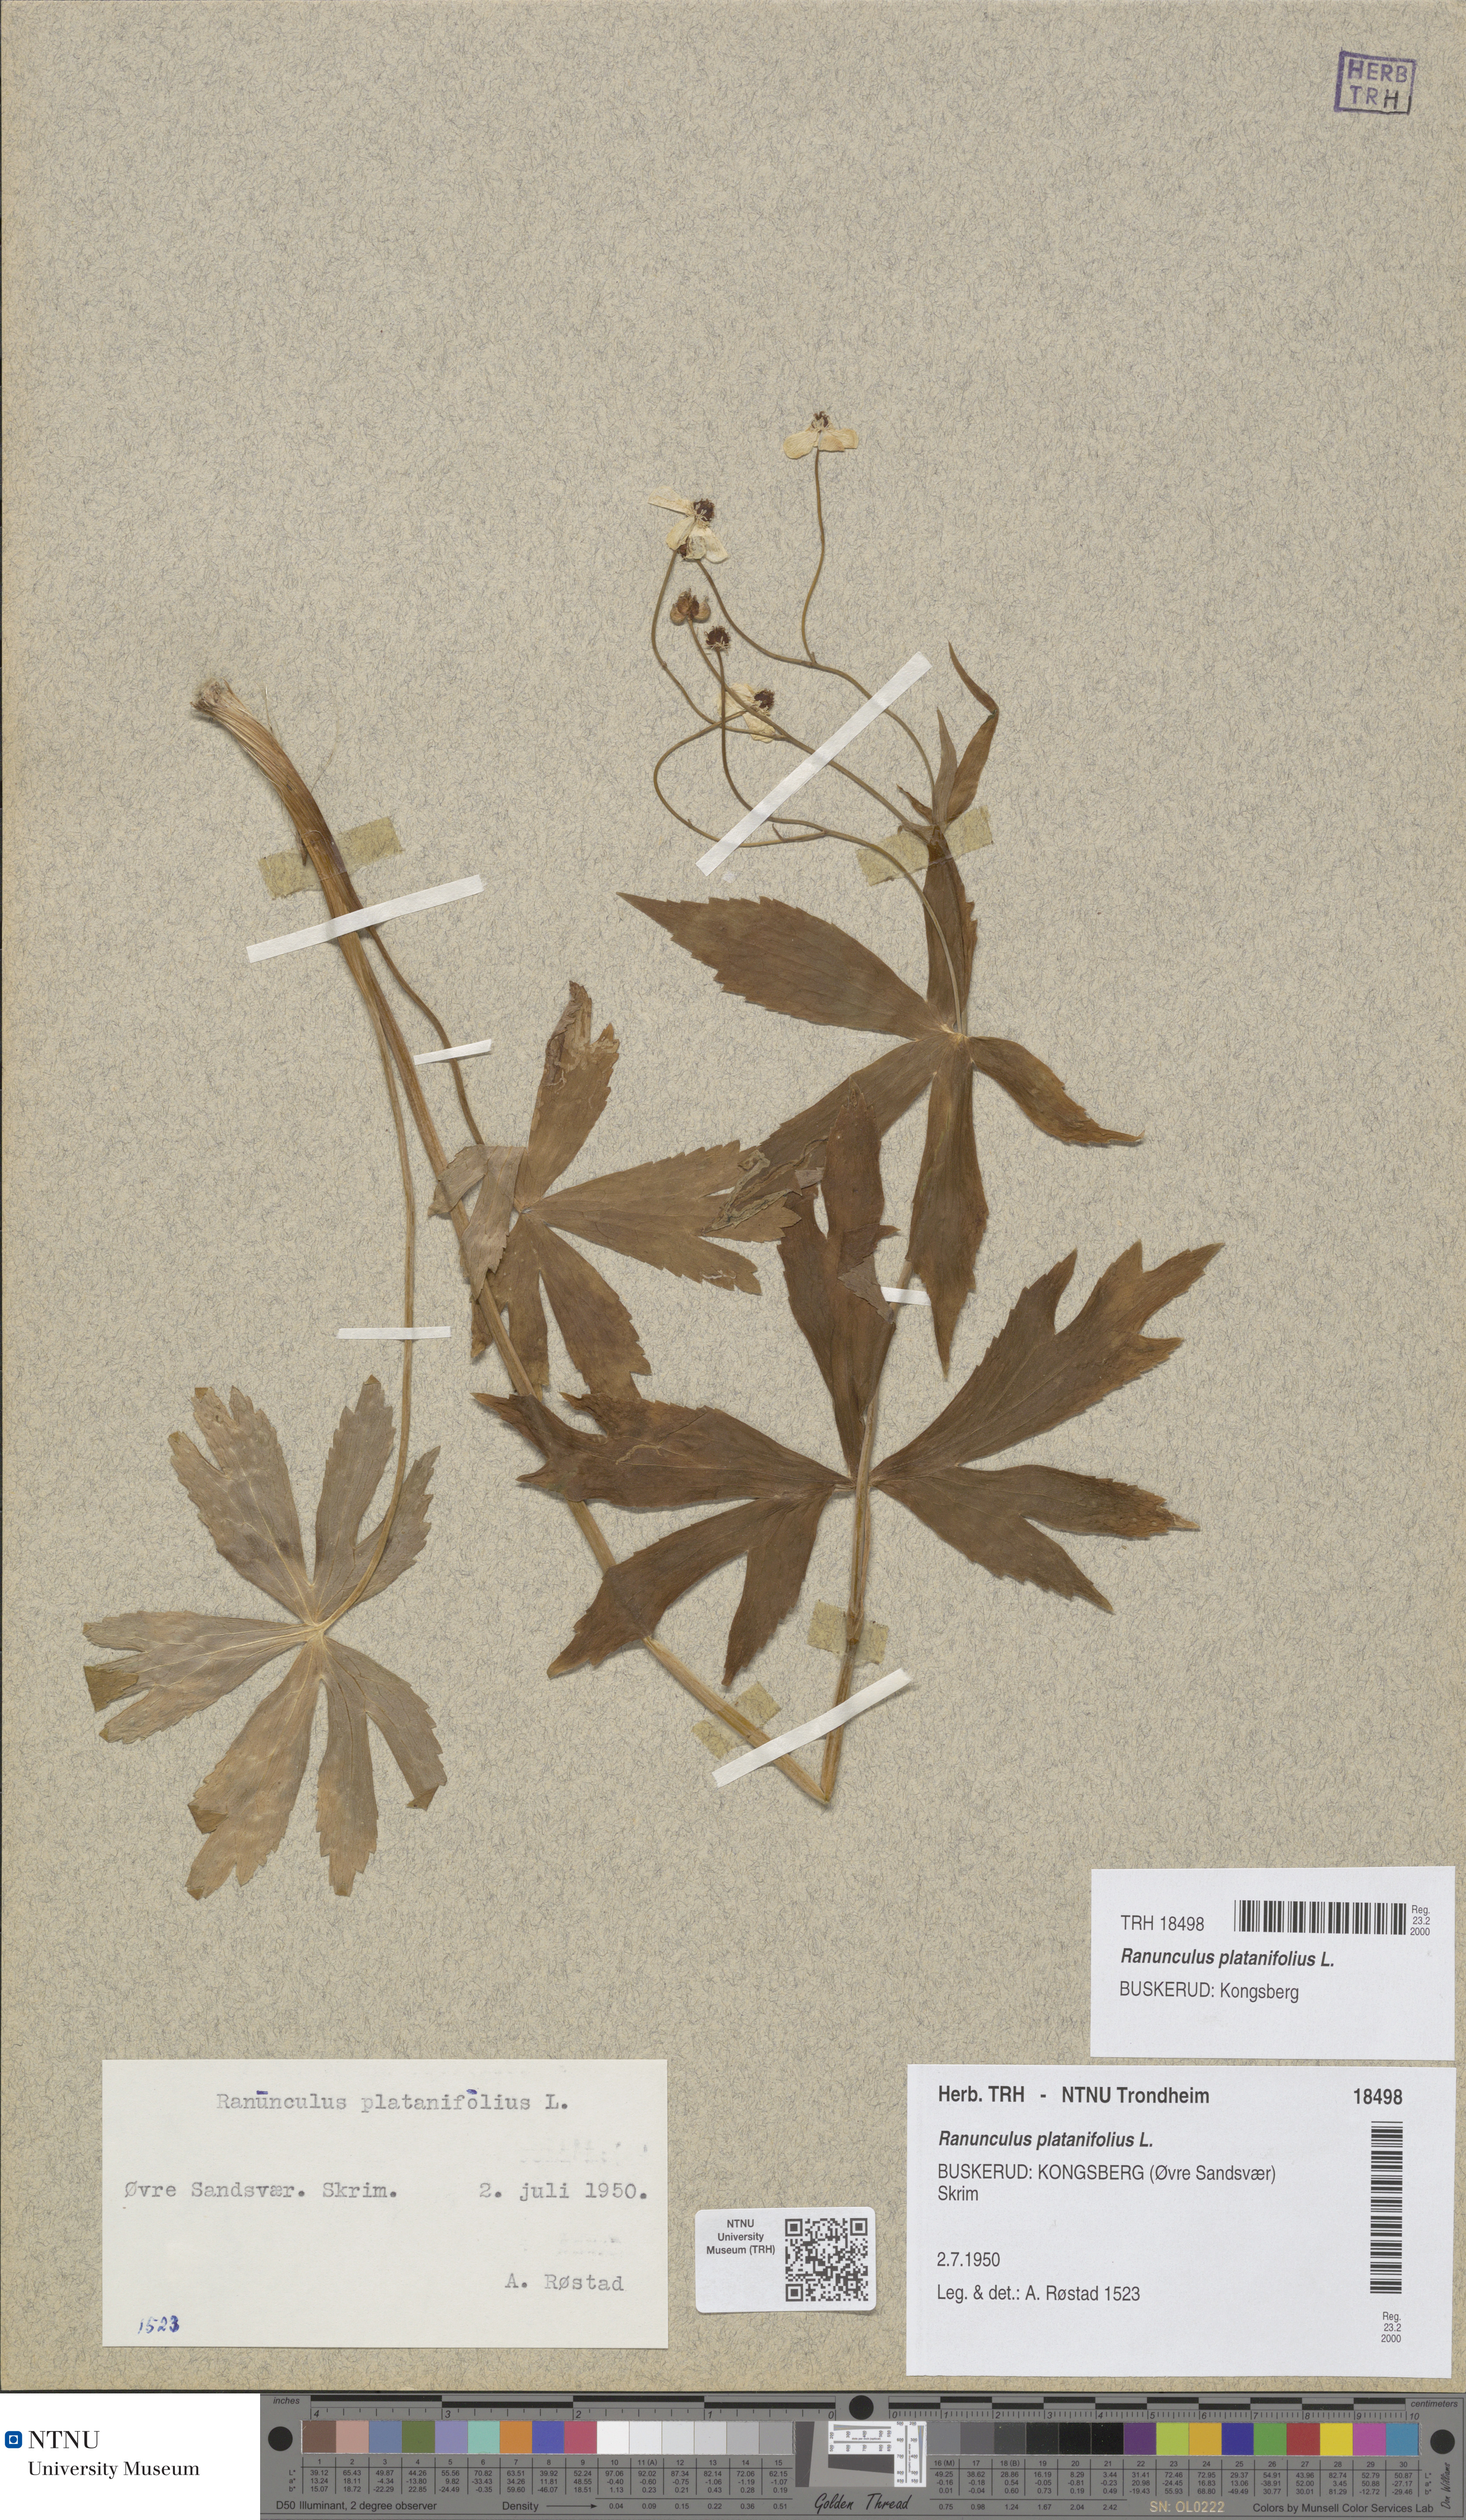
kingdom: Plantae
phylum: Tracheophyta
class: Magnoliopsida
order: Ranunculales
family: Ranunculaceae
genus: Ranunculus
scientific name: Ranunculus platanifolius
